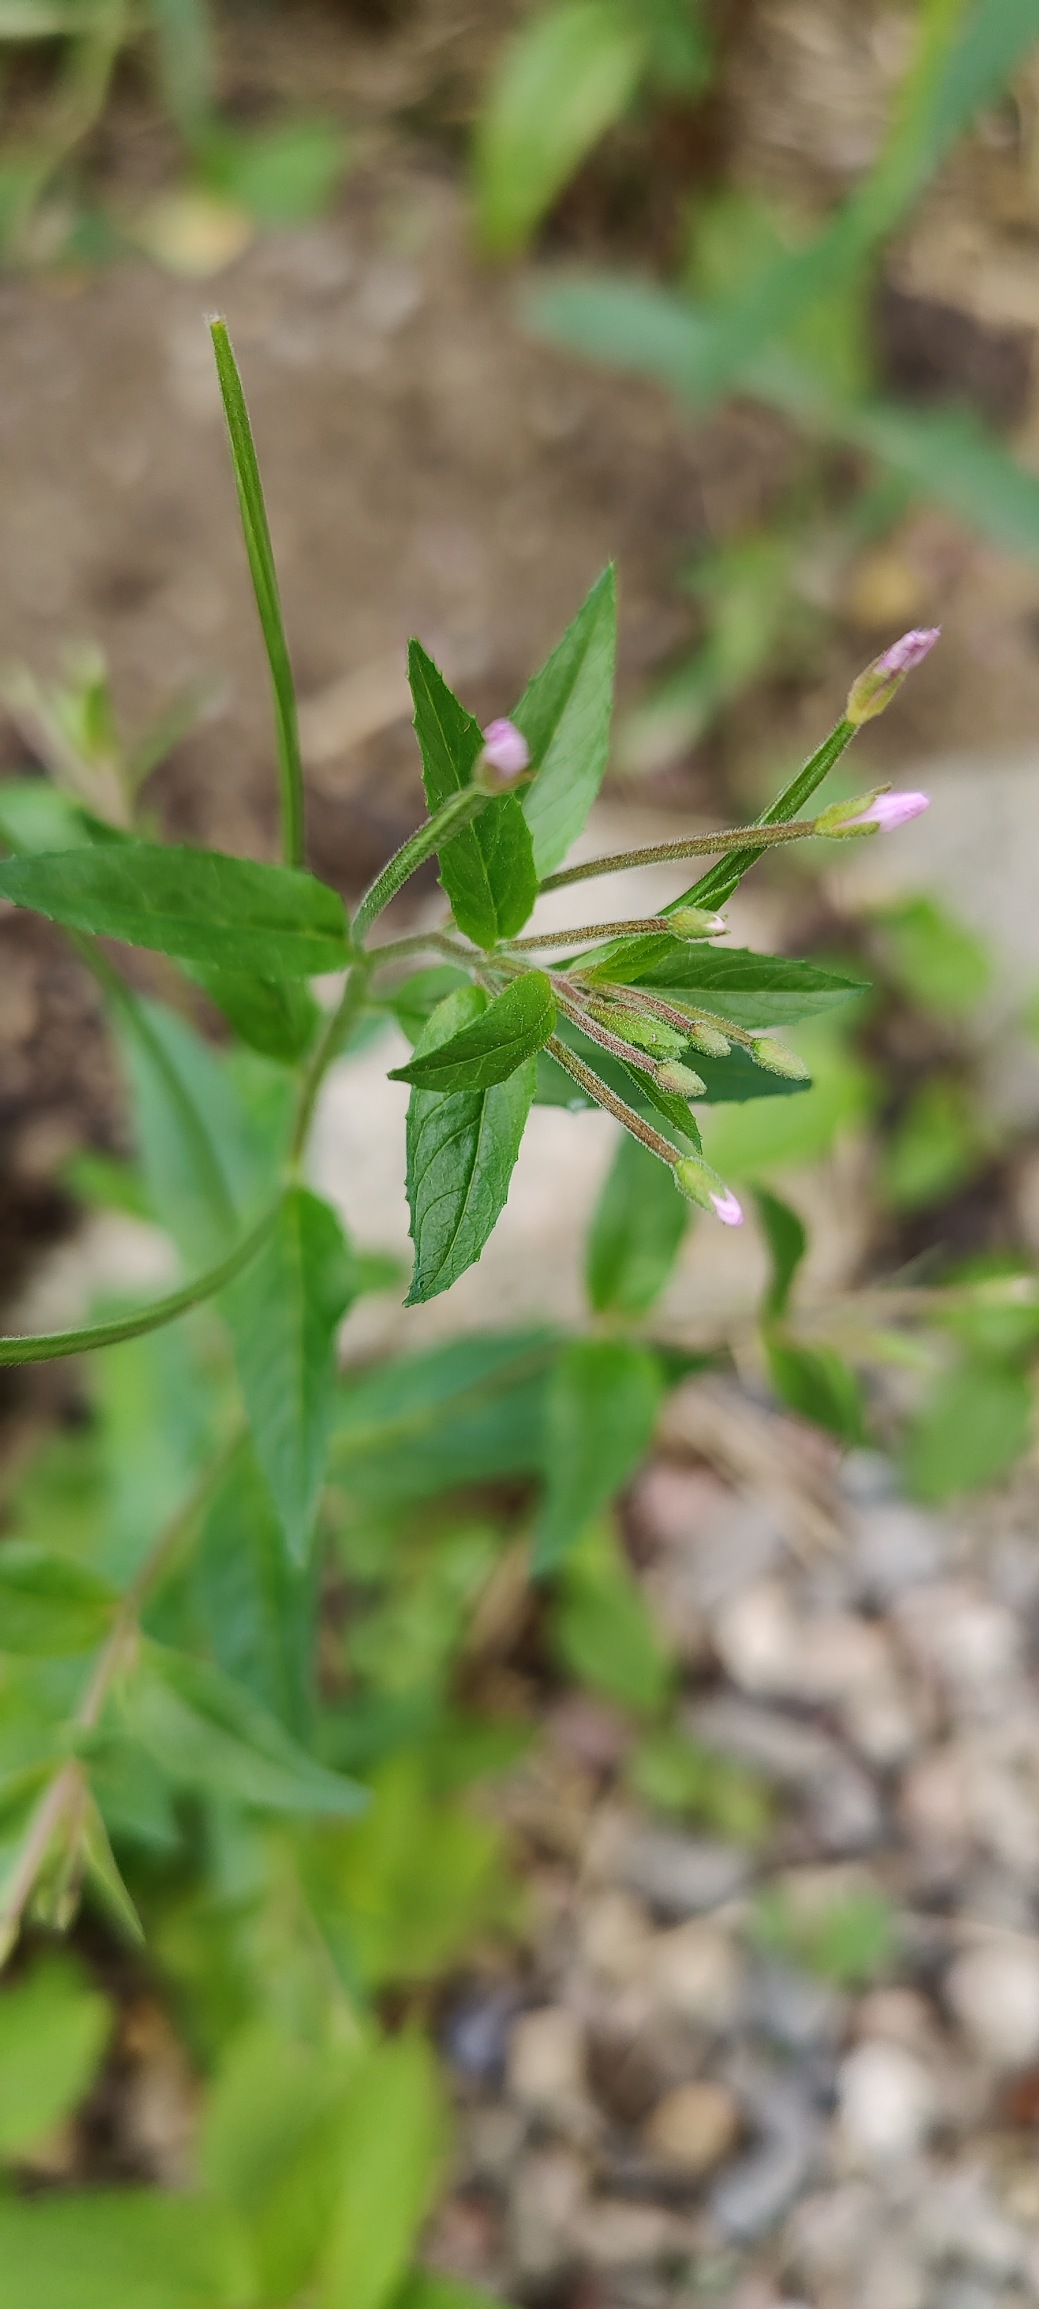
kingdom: Plantae
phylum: Tracheophyta
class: Magnoliopsida
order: Myrtales
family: Onagraceae
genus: Epilobium
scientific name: Epilobium ciliatum
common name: Kirtlet dueurt
